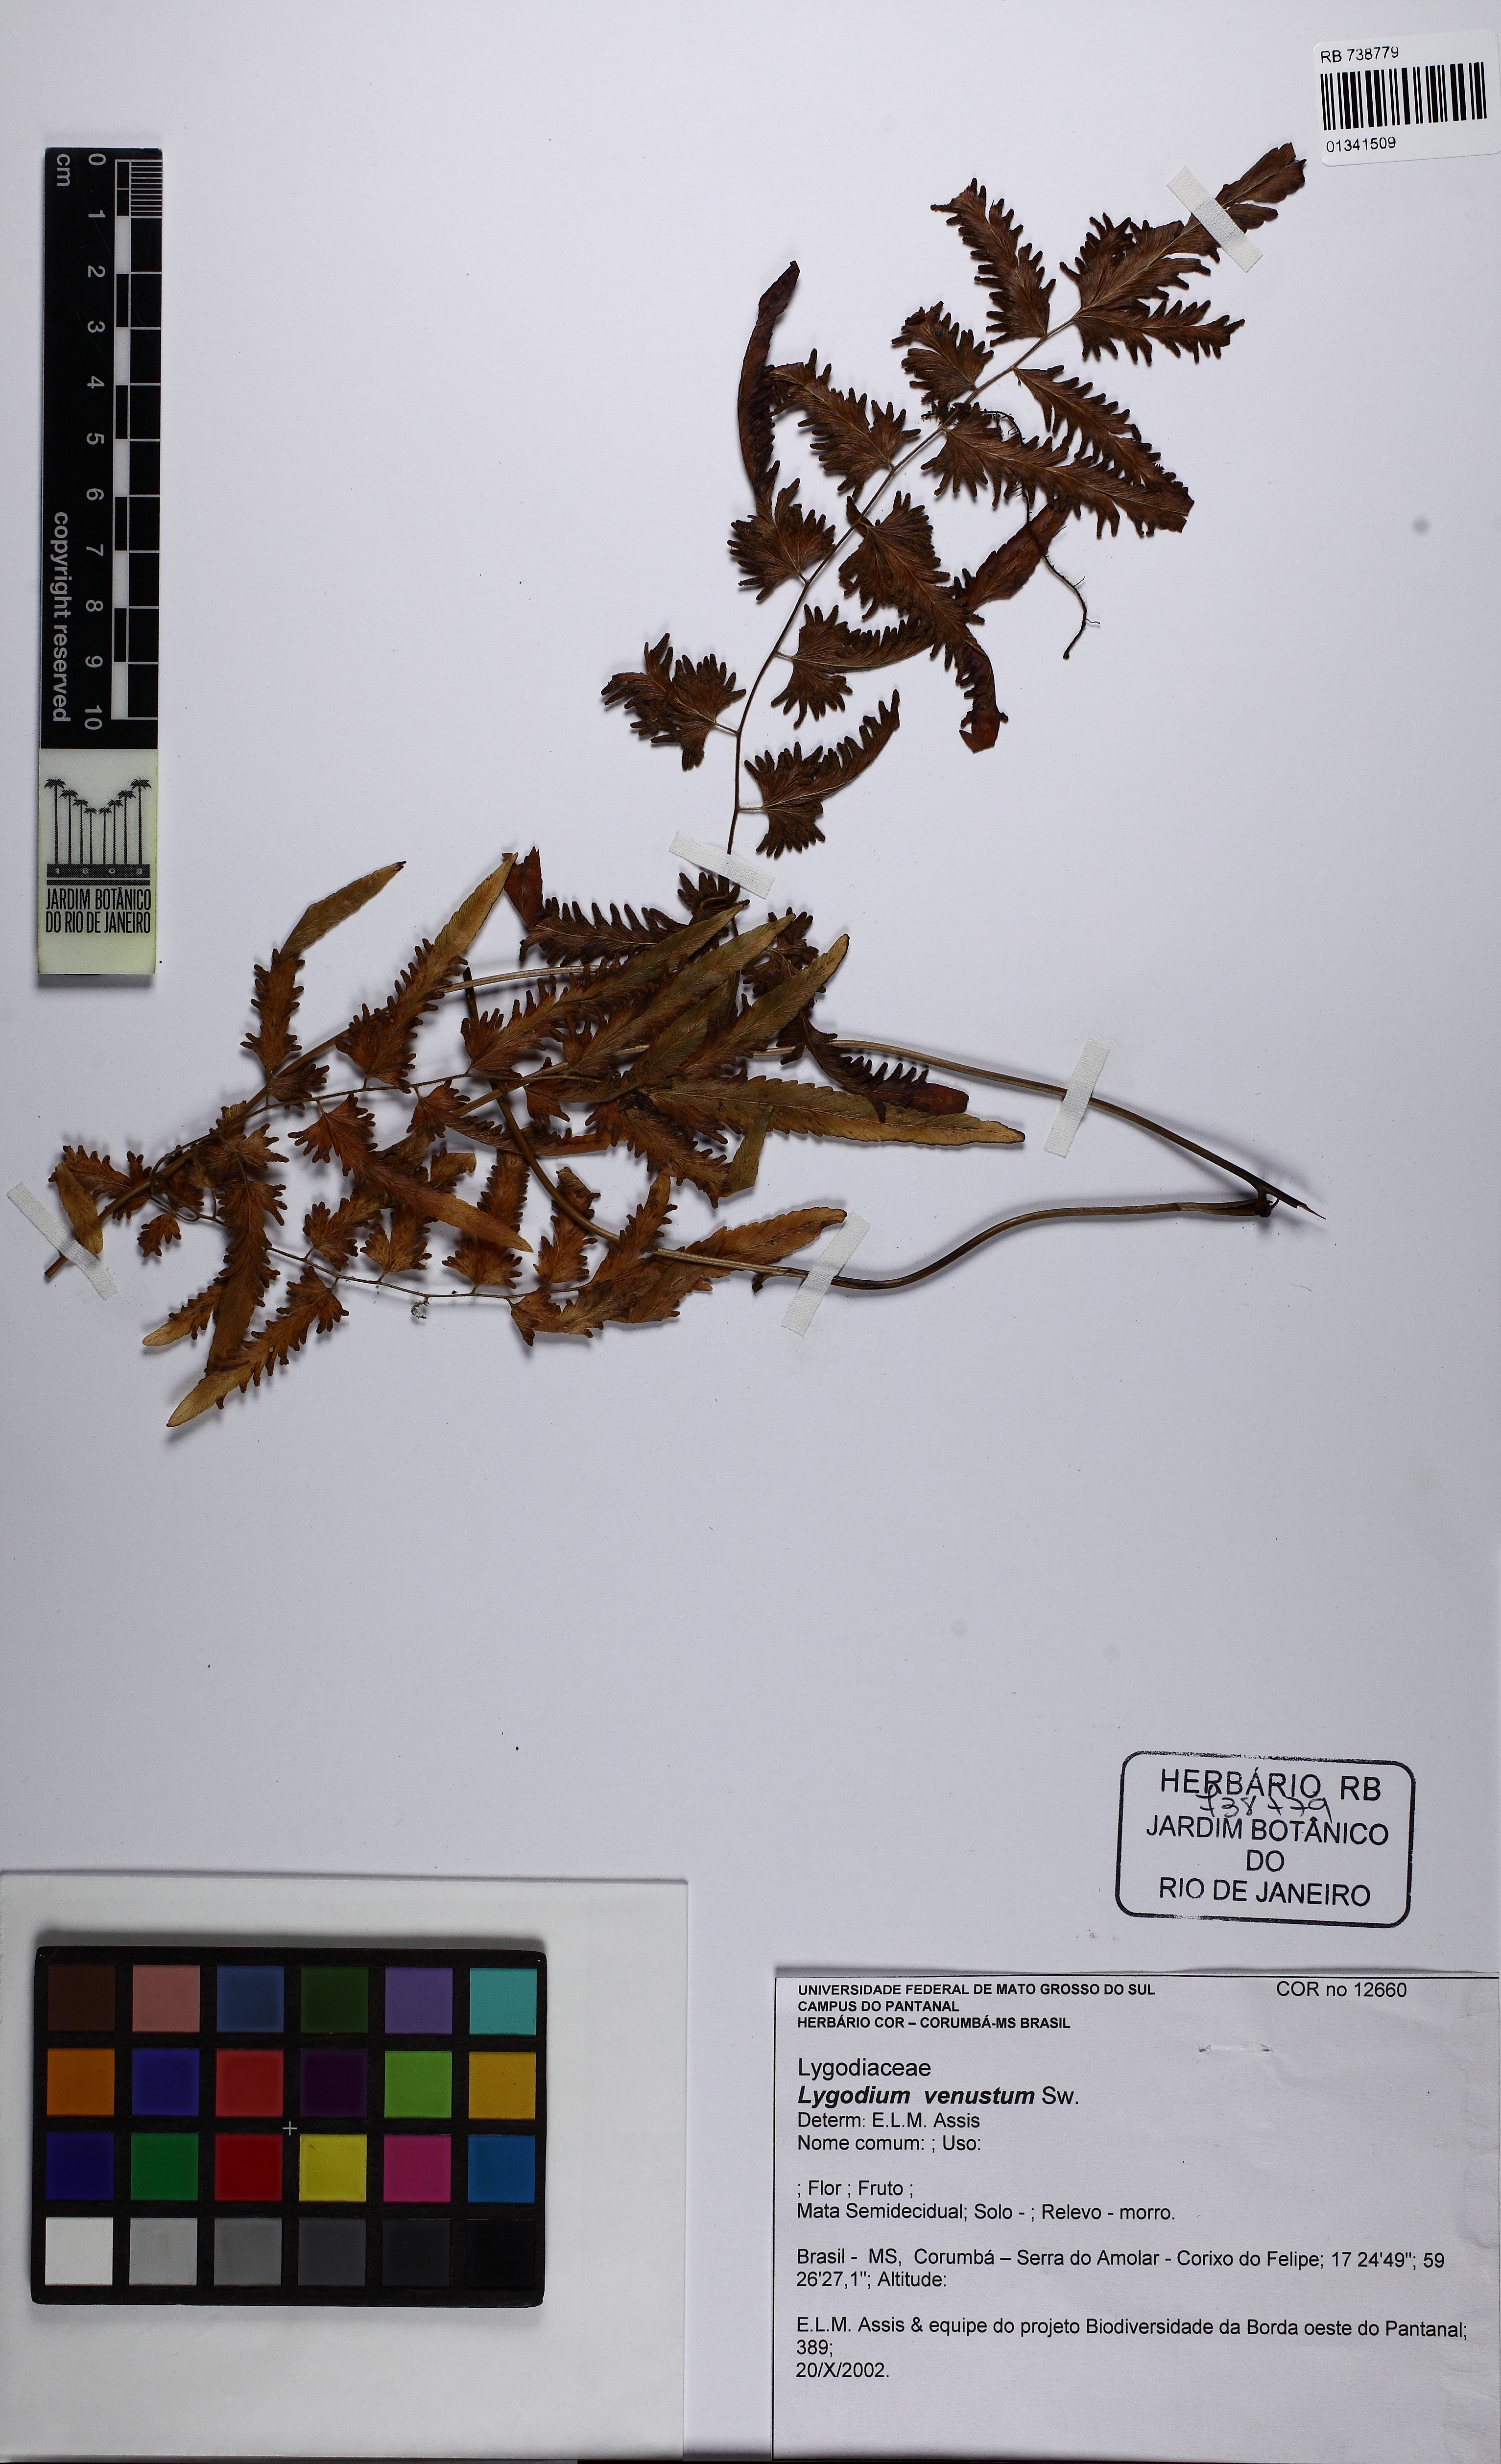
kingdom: Plantae
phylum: Tracheophyta
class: Polypodiopsida
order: Schizaeales
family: Lygodiaceae
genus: Lygodium
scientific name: Lygodium venustum
